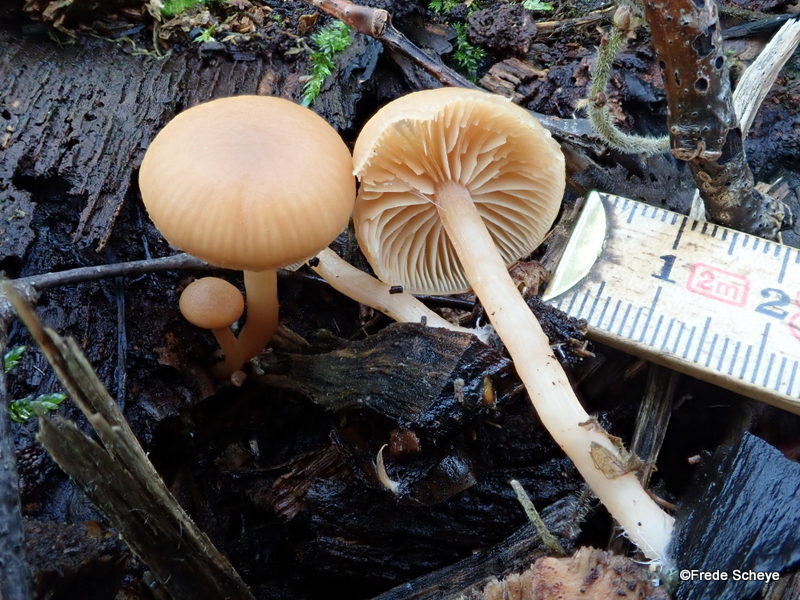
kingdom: Fungi
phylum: Basidiomycota
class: Agaricomycetes
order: Agaricales
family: Tubariaceae
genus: Tubaria
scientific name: Tubaria furfuracea
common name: kliddet fnughat
